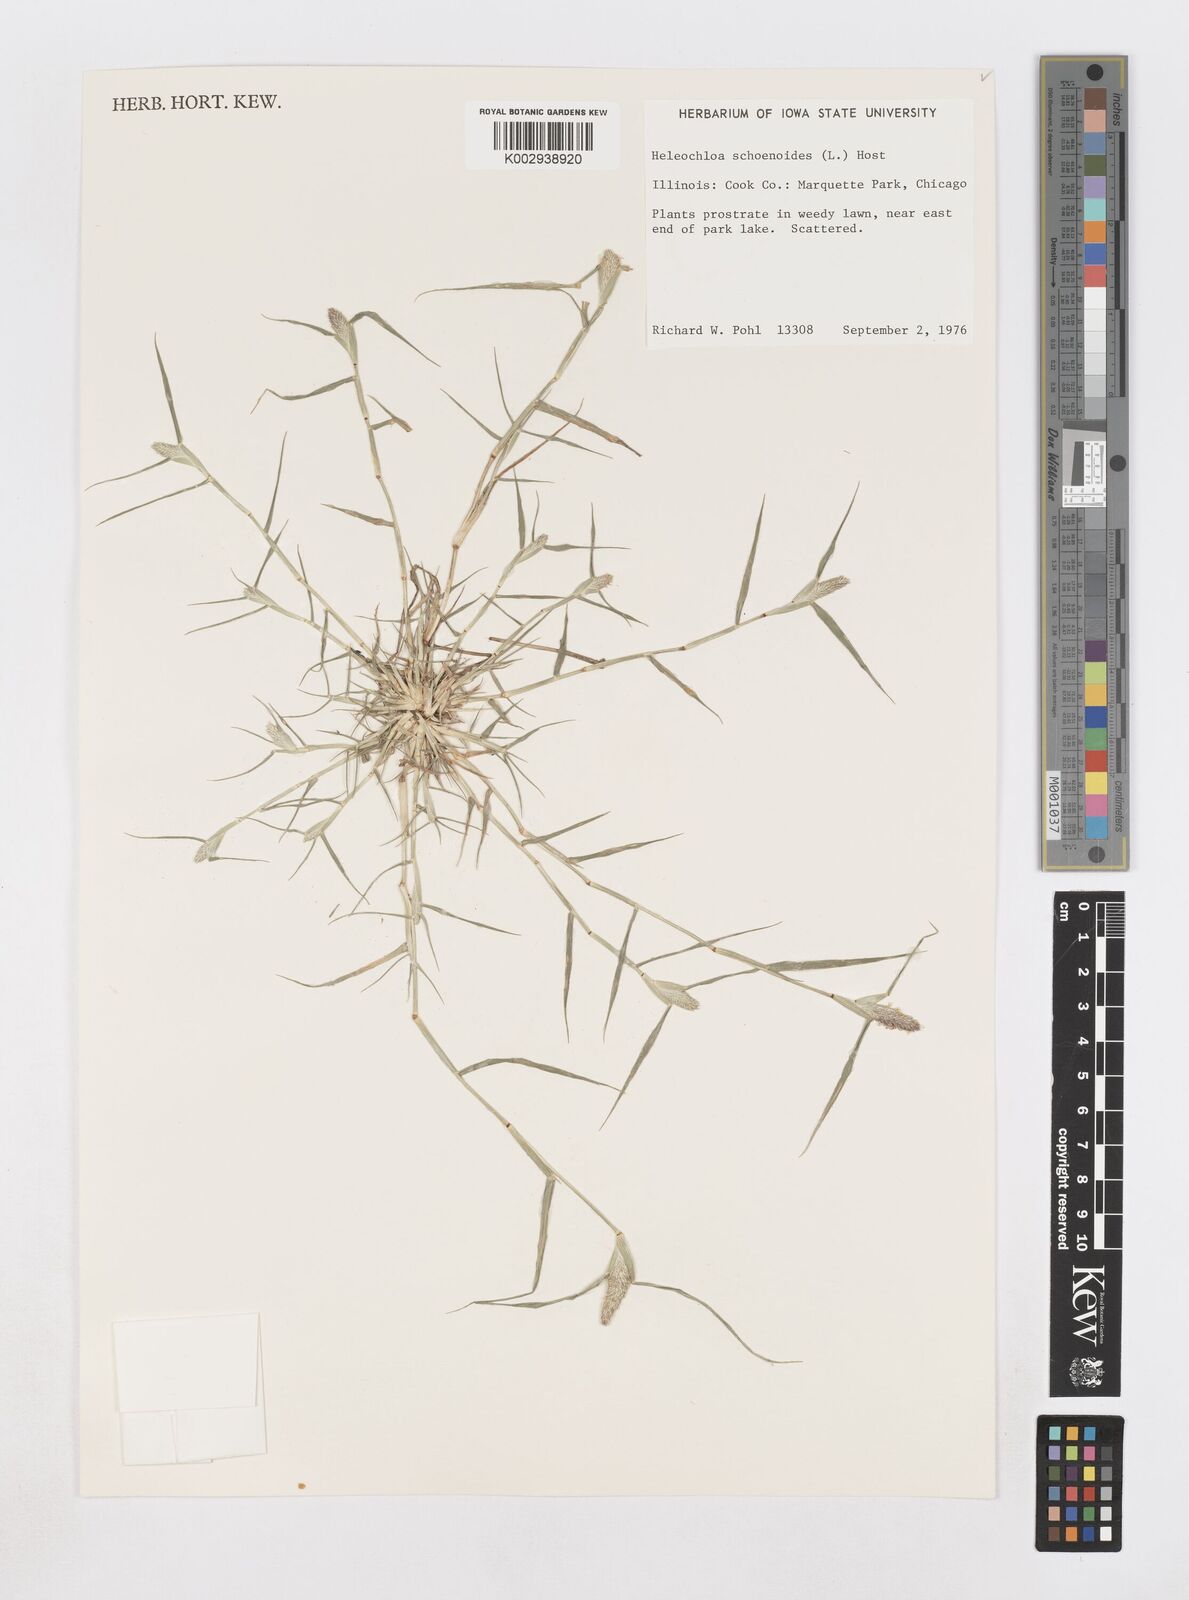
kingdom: Animalia
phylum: Arthropoda
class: Insecta
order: Coleoptera
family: Tenebrionidae
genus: Crypsis
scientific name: Crypsis
